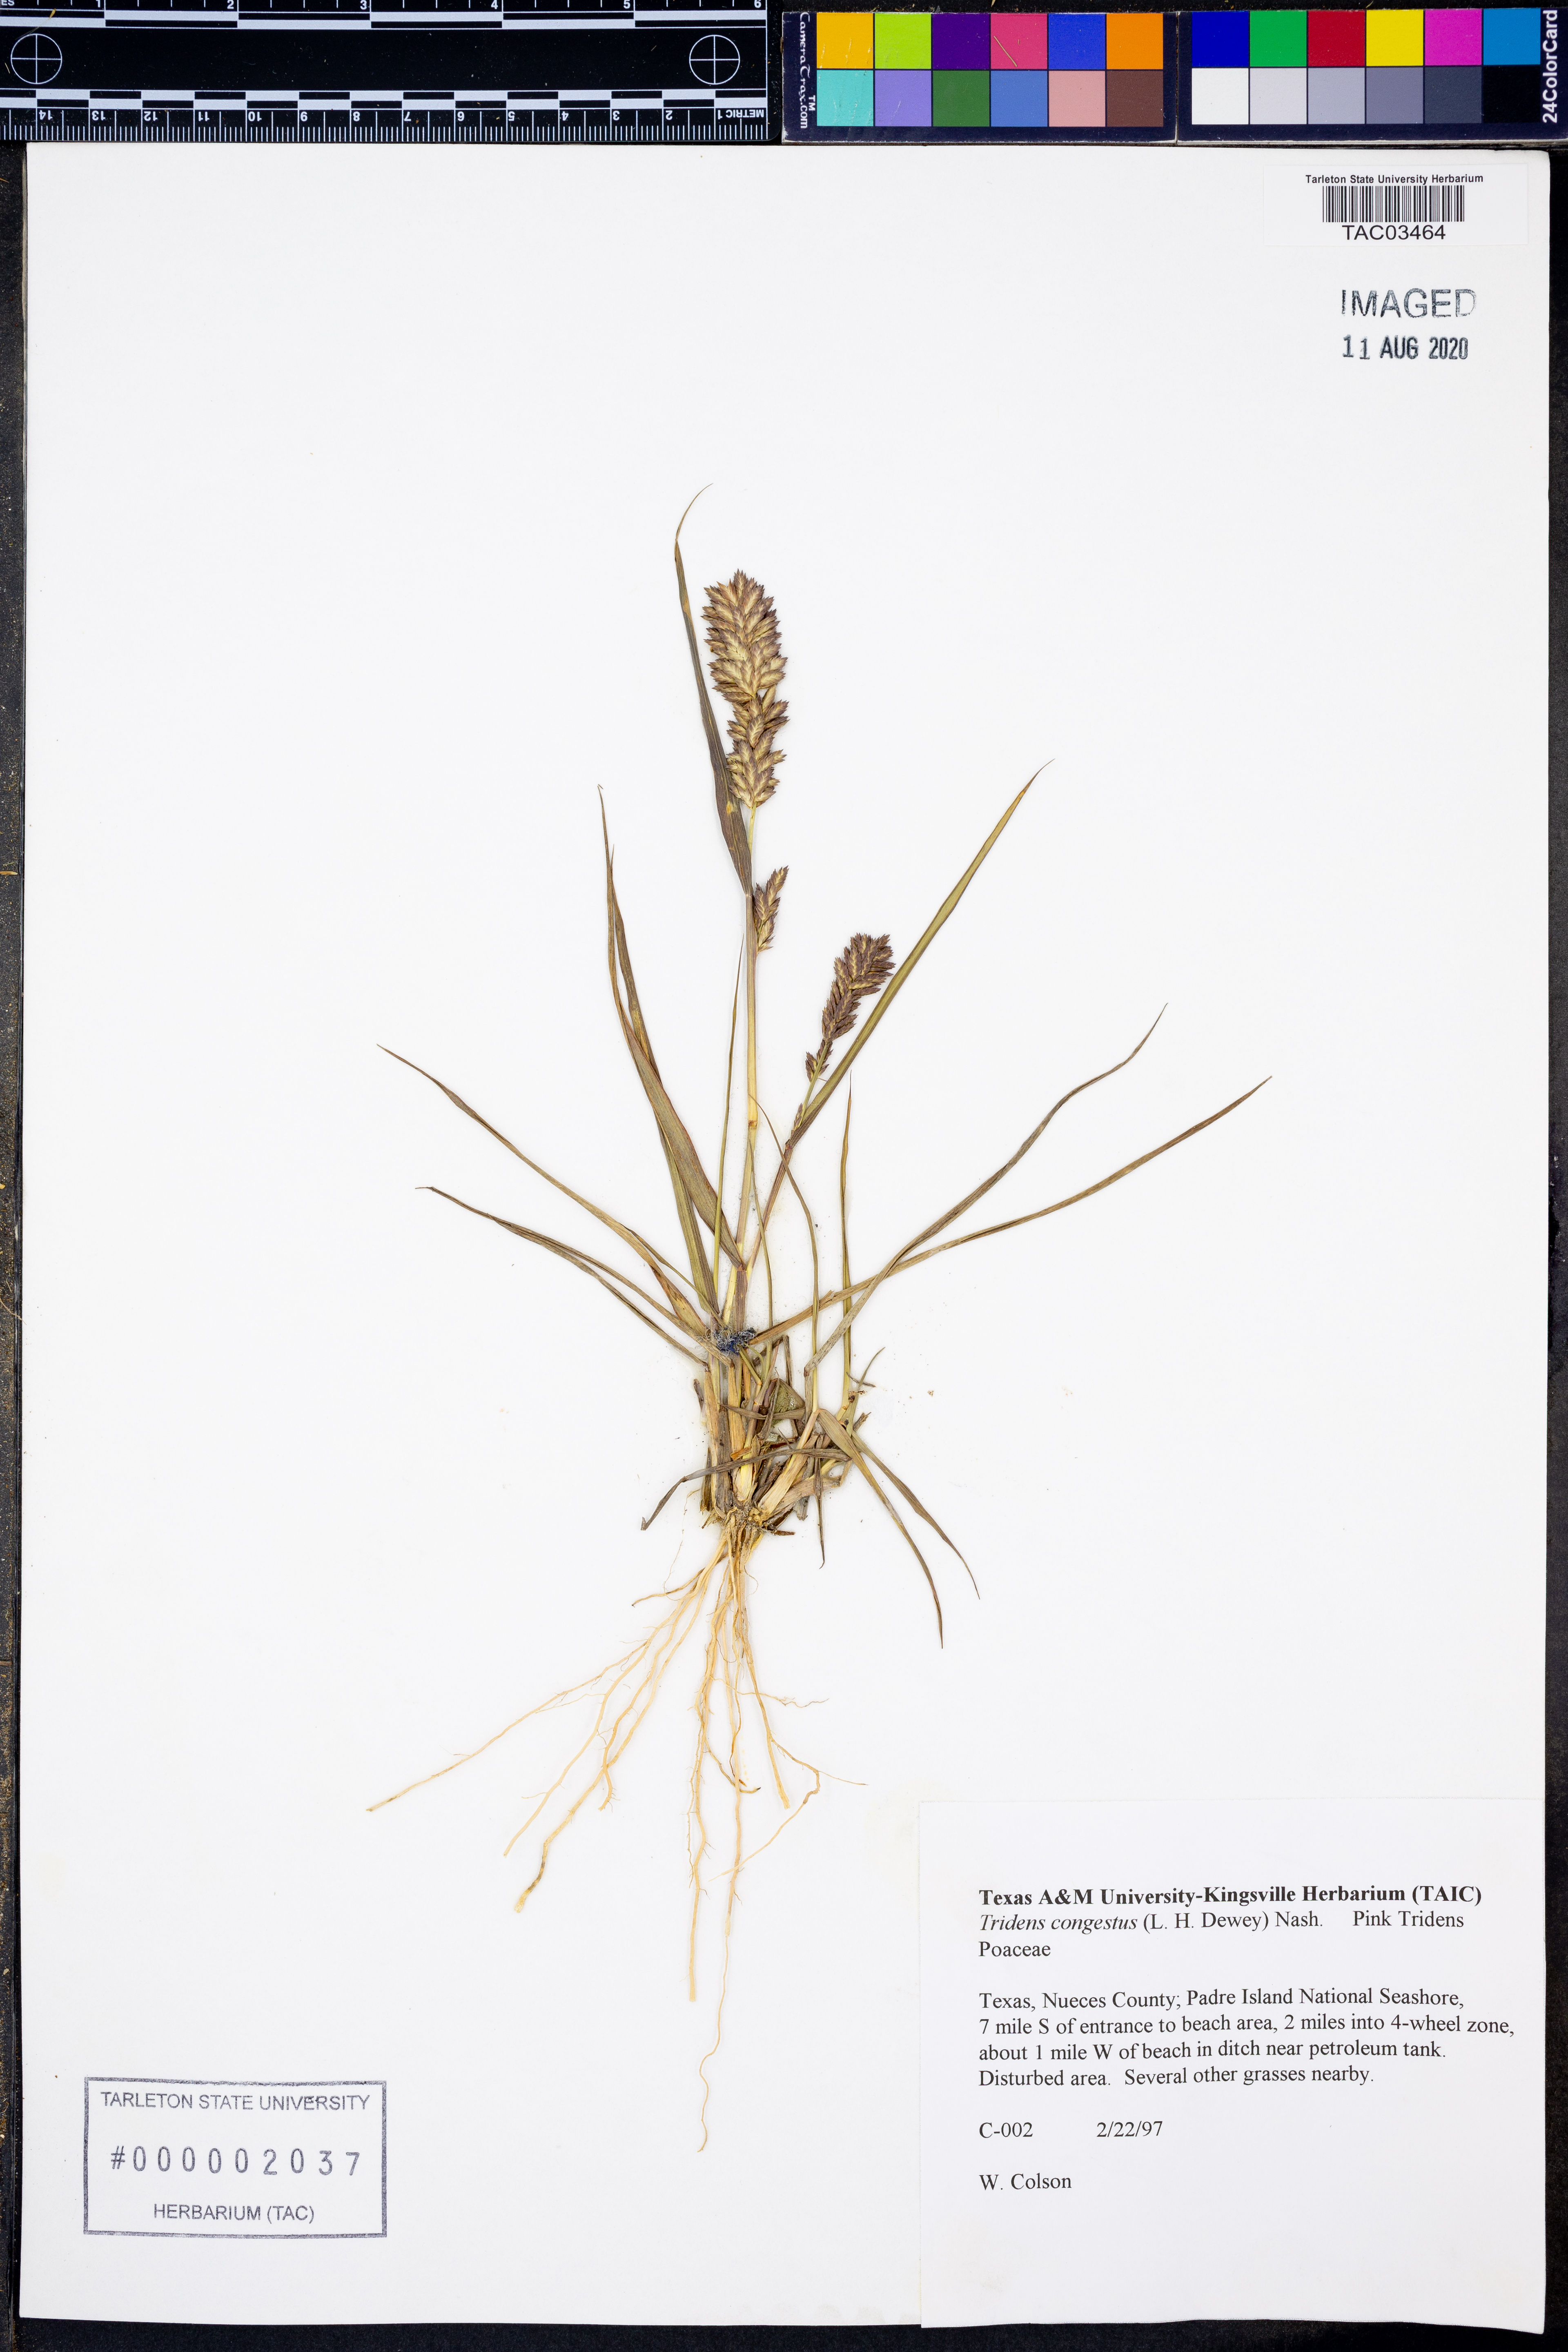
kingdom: Plantae
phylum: Tracheophyta
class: Liliopsida
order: Poales
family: Poaceae
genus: Tridens
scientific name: Tridens congestus
